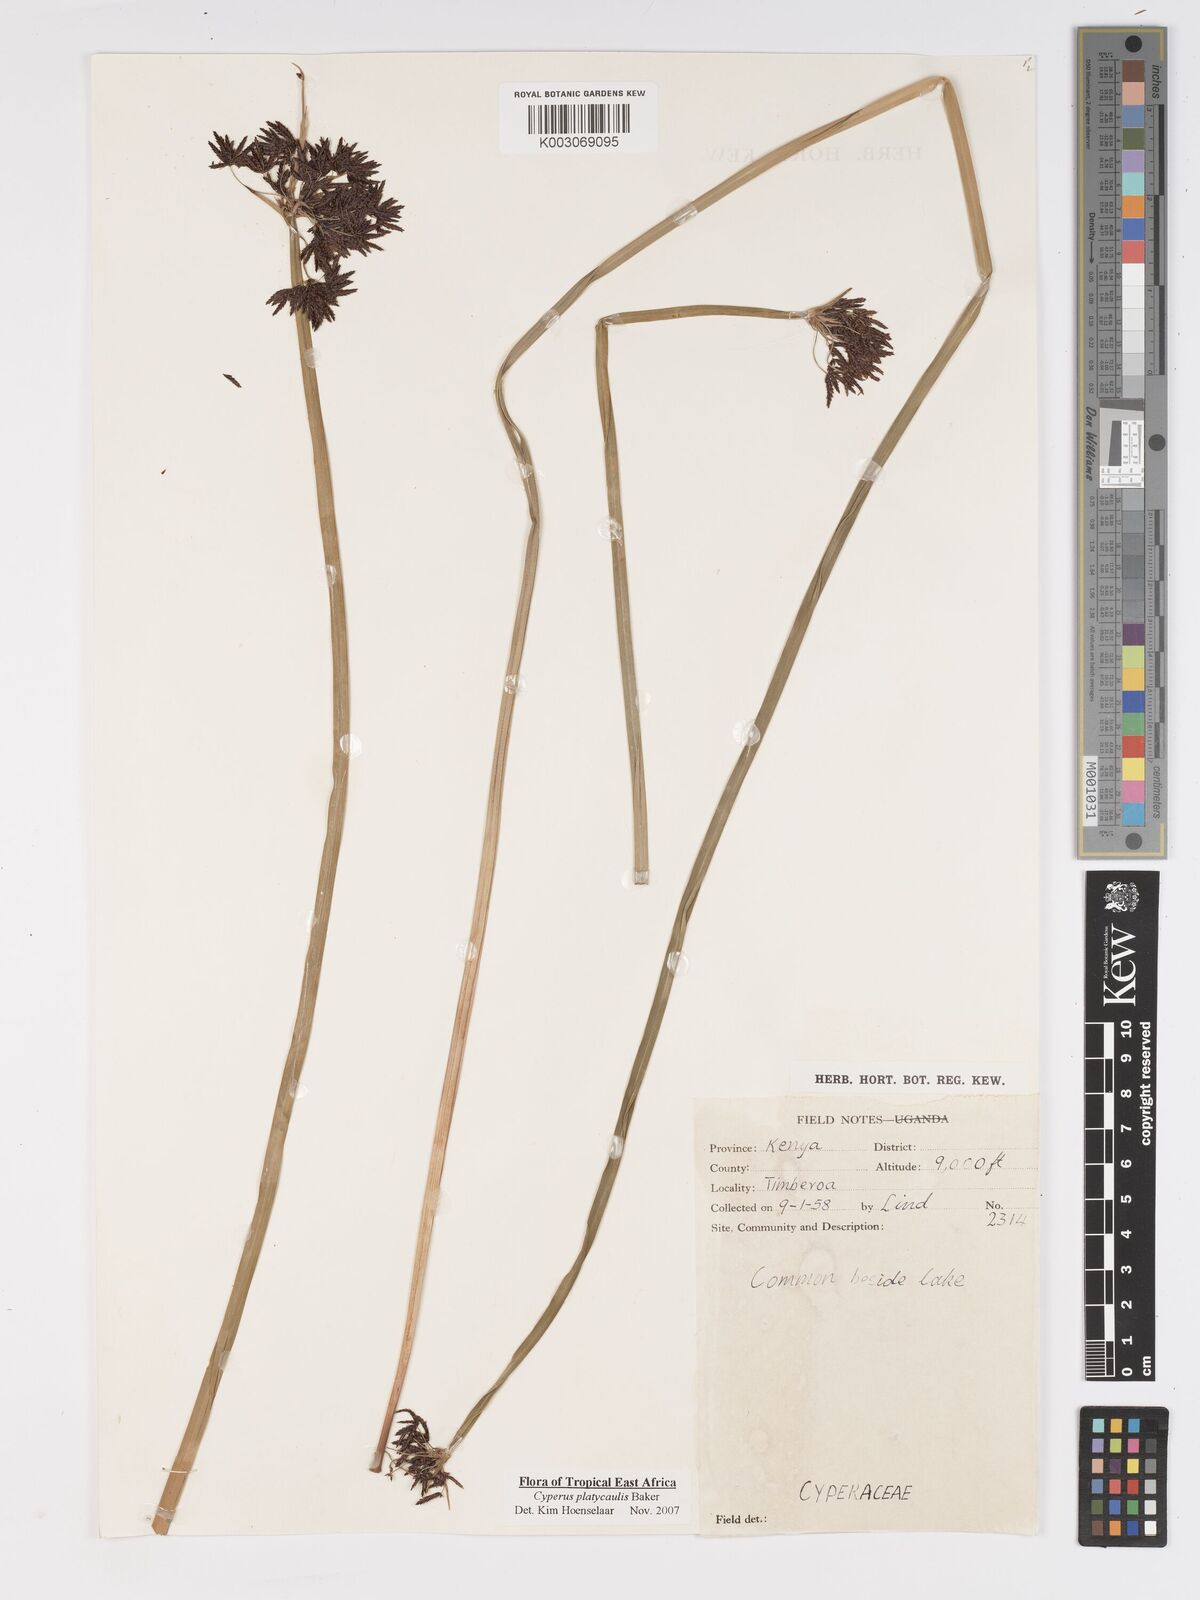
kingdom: Plantae
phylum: Tracheophyta
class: Liliopsida
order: Poales
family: Cyperaceae
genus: Cyperus
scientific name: Cyperus platycaulis
